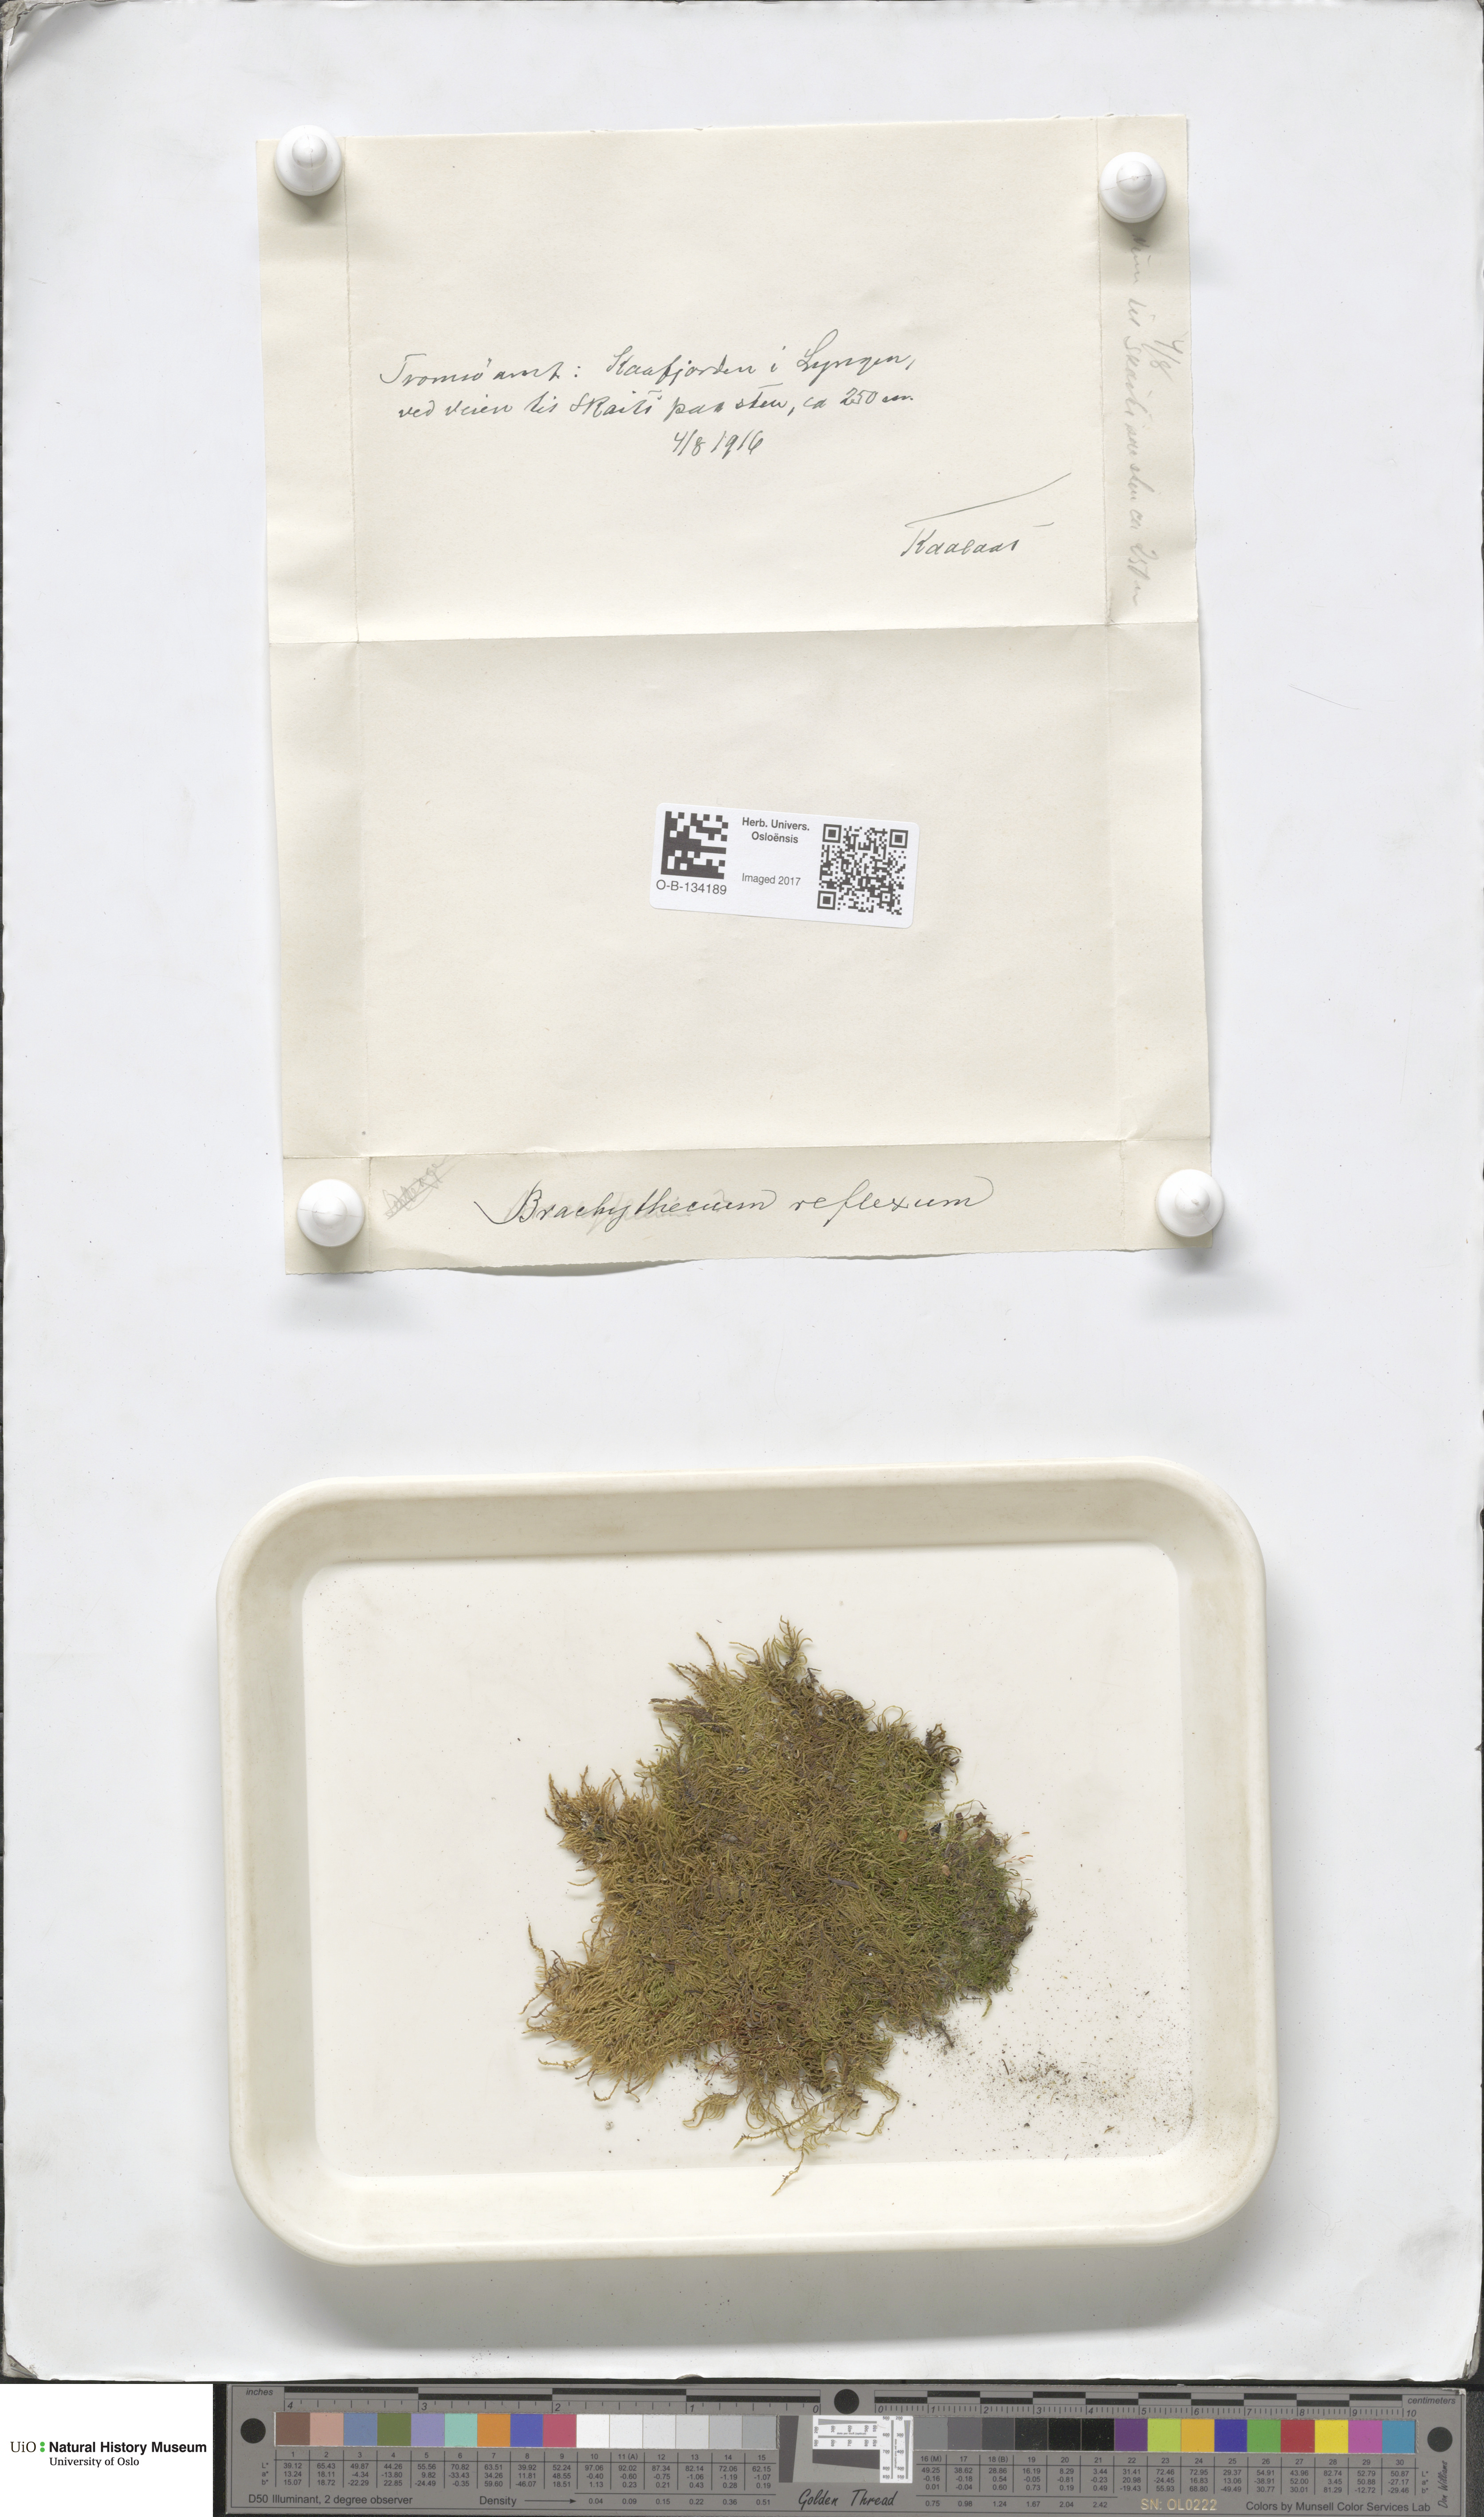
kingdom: Plantae
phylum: Bryophyta
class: Bryopsida
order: Hypnales
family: Brachytheciaceae
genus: Sciuro-hypnum
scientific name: Sciuro-hypnum reflexum
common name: Reflexed feather-moss
